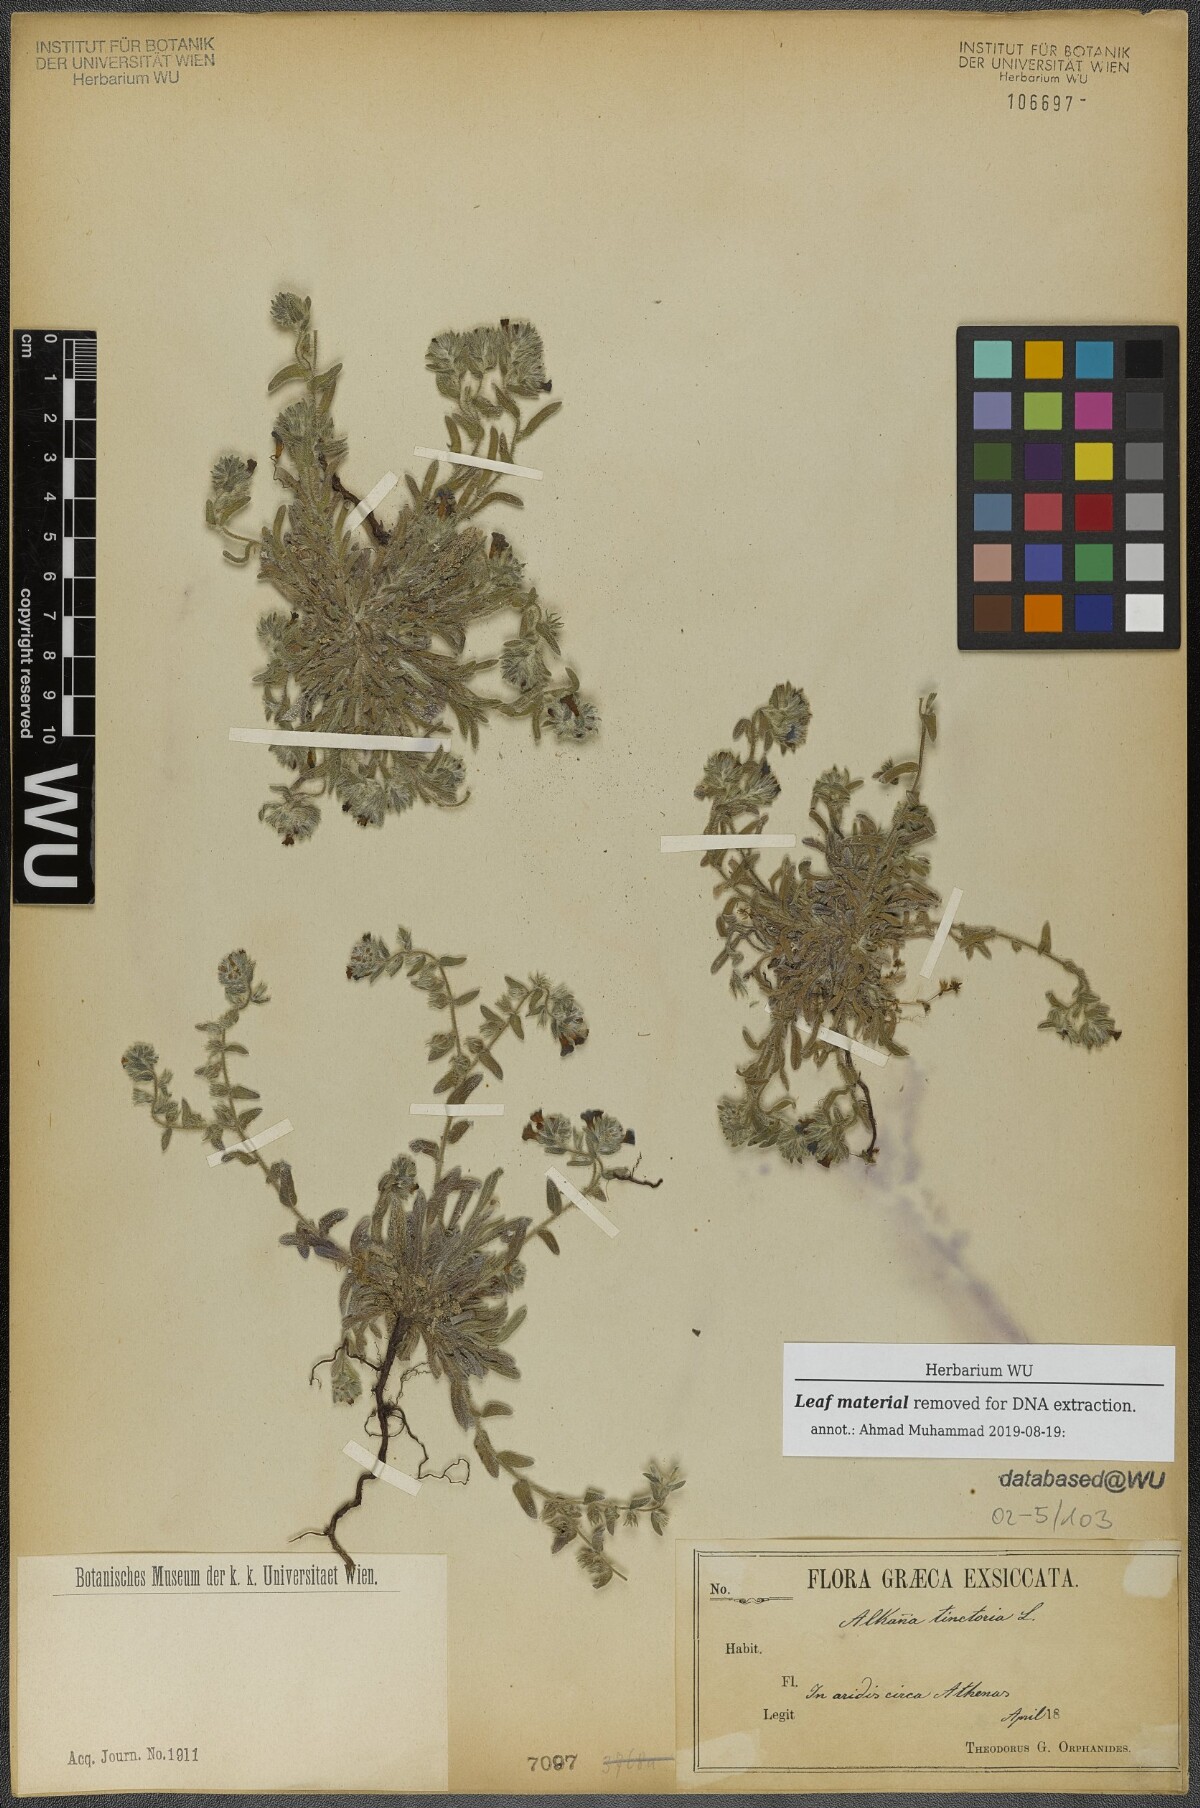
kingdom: Plantae
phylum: Tracheophyta
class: Magnoliopsida
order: Boraginales
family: Boraginaceae
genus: Alkanna
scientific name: Alkanna tinctoria
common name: Dyer's-alkanet
